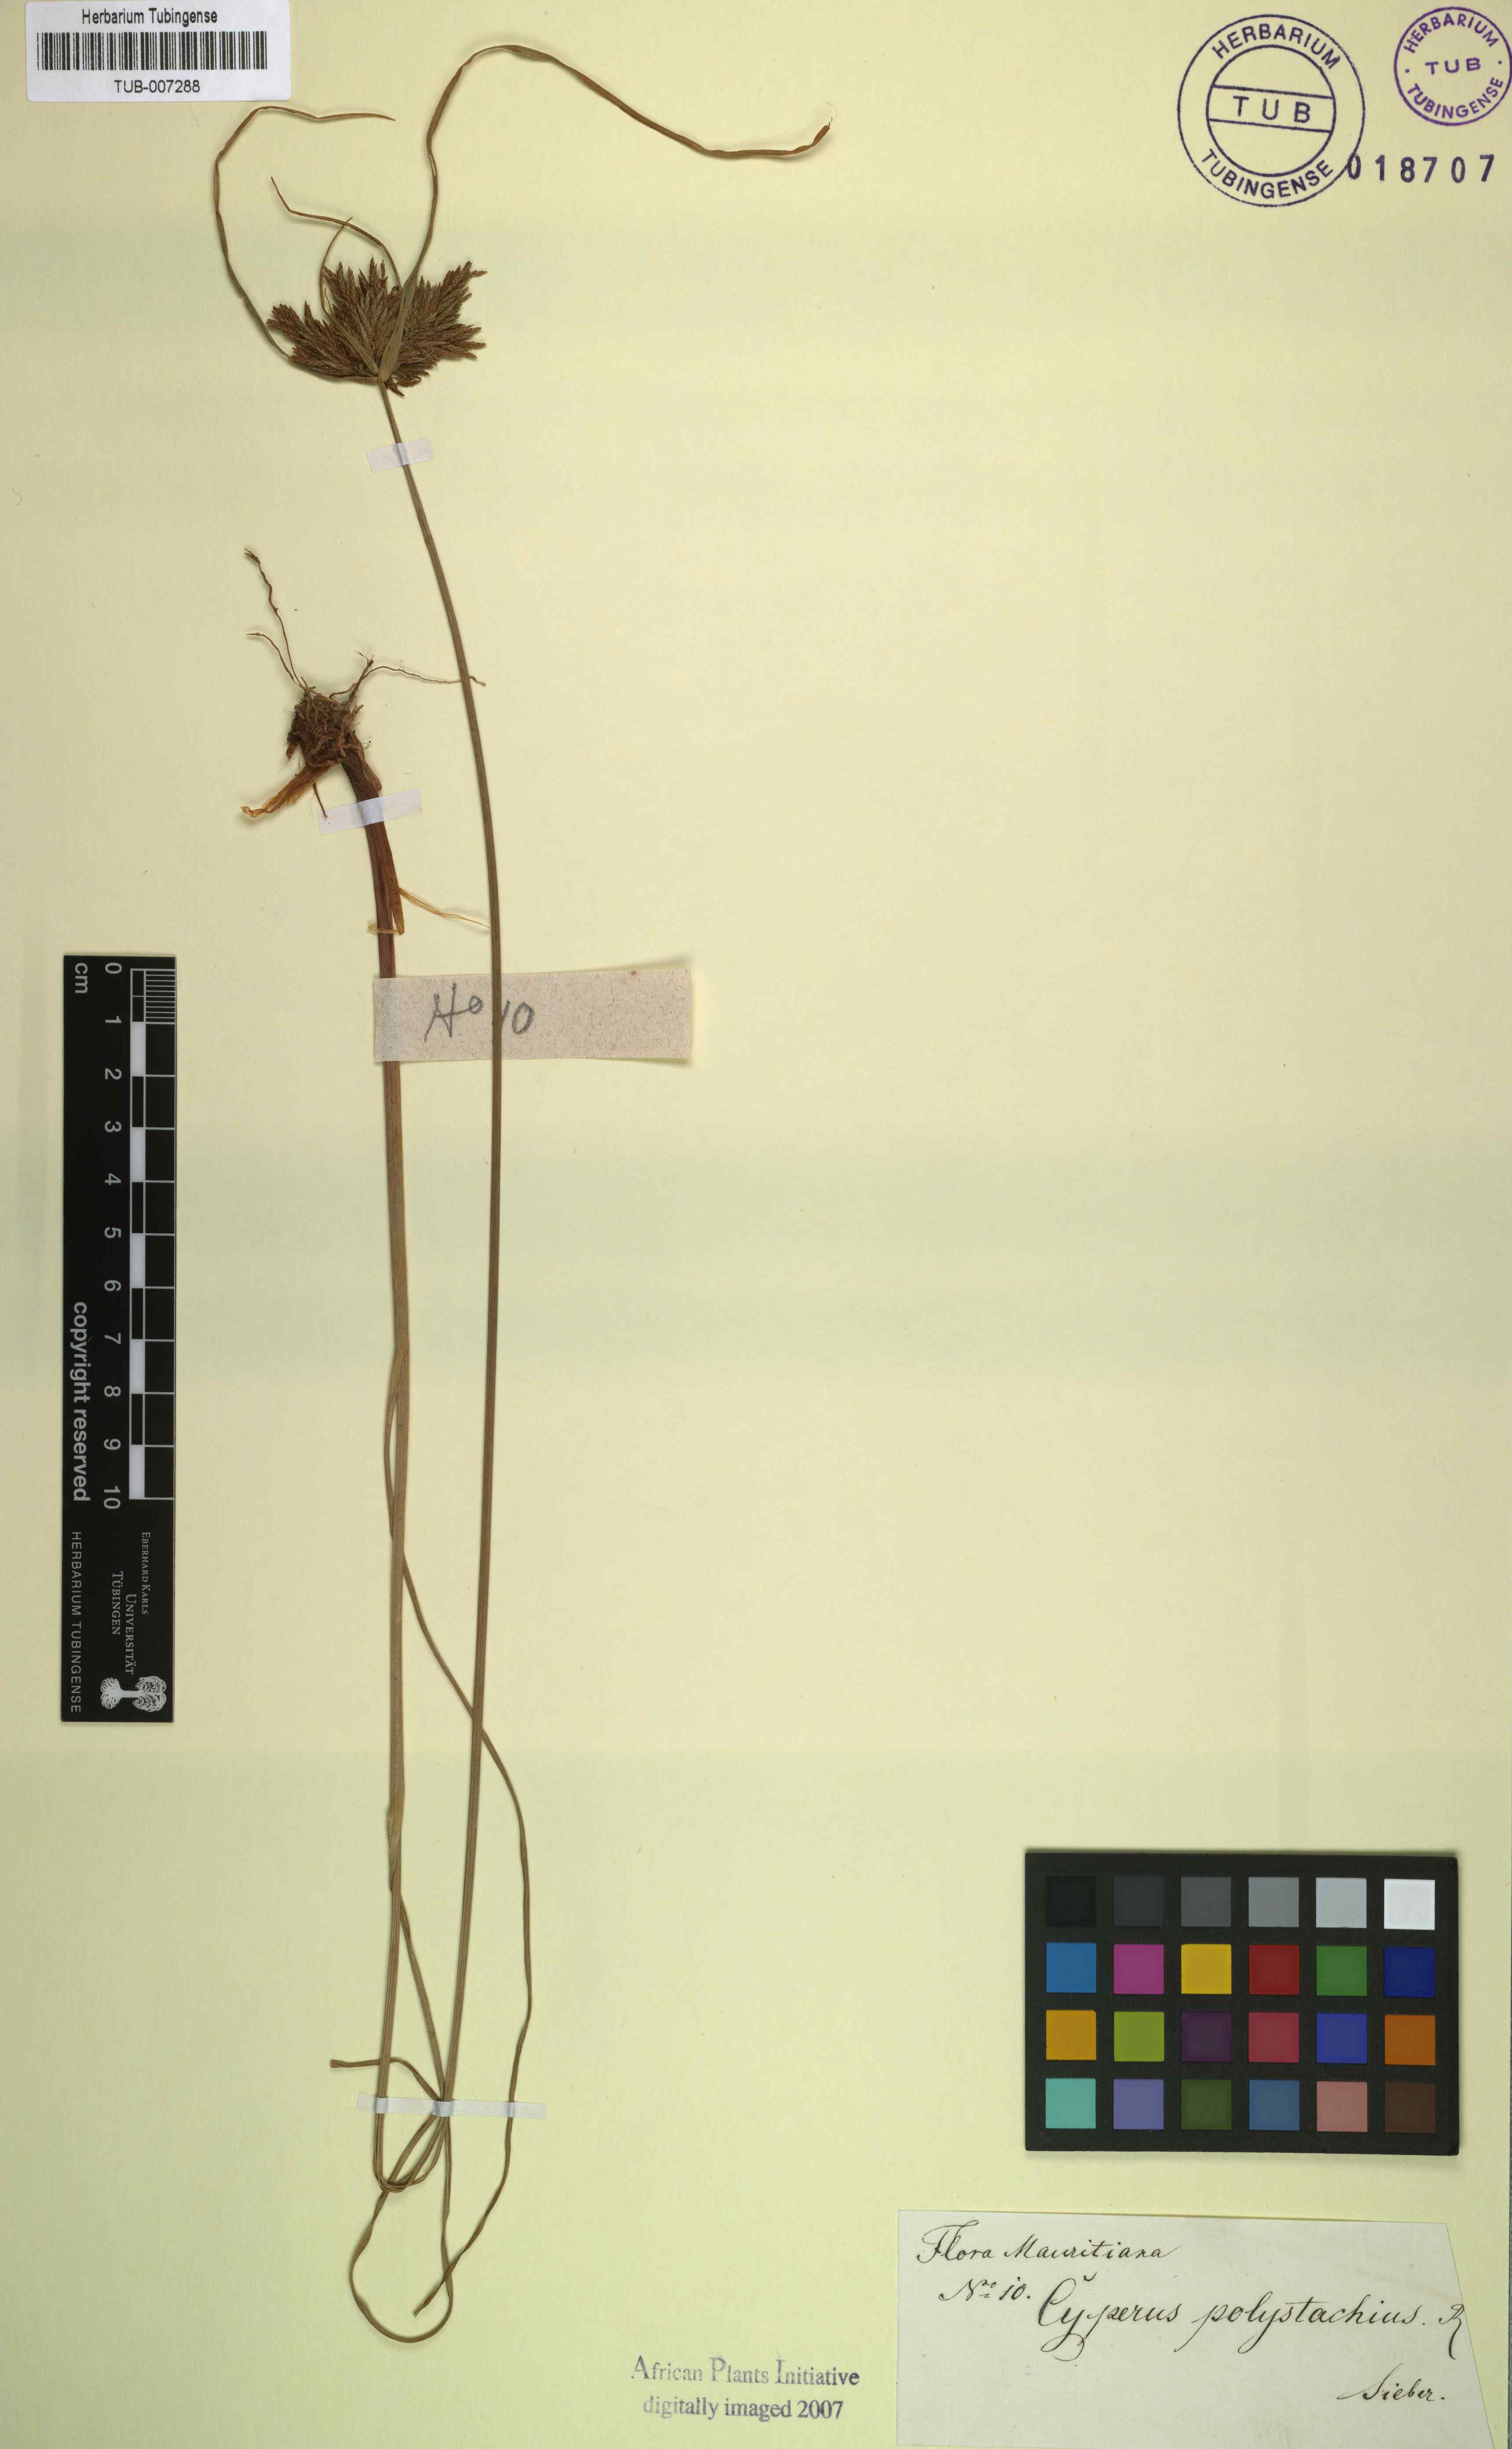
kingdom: Plantae
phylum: Tracheophyta
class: Liliopsida
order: Poales
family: Cyperaceae
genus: Cyperus
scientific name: Cyperus polystachyos
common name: Bunchy flat sedge
